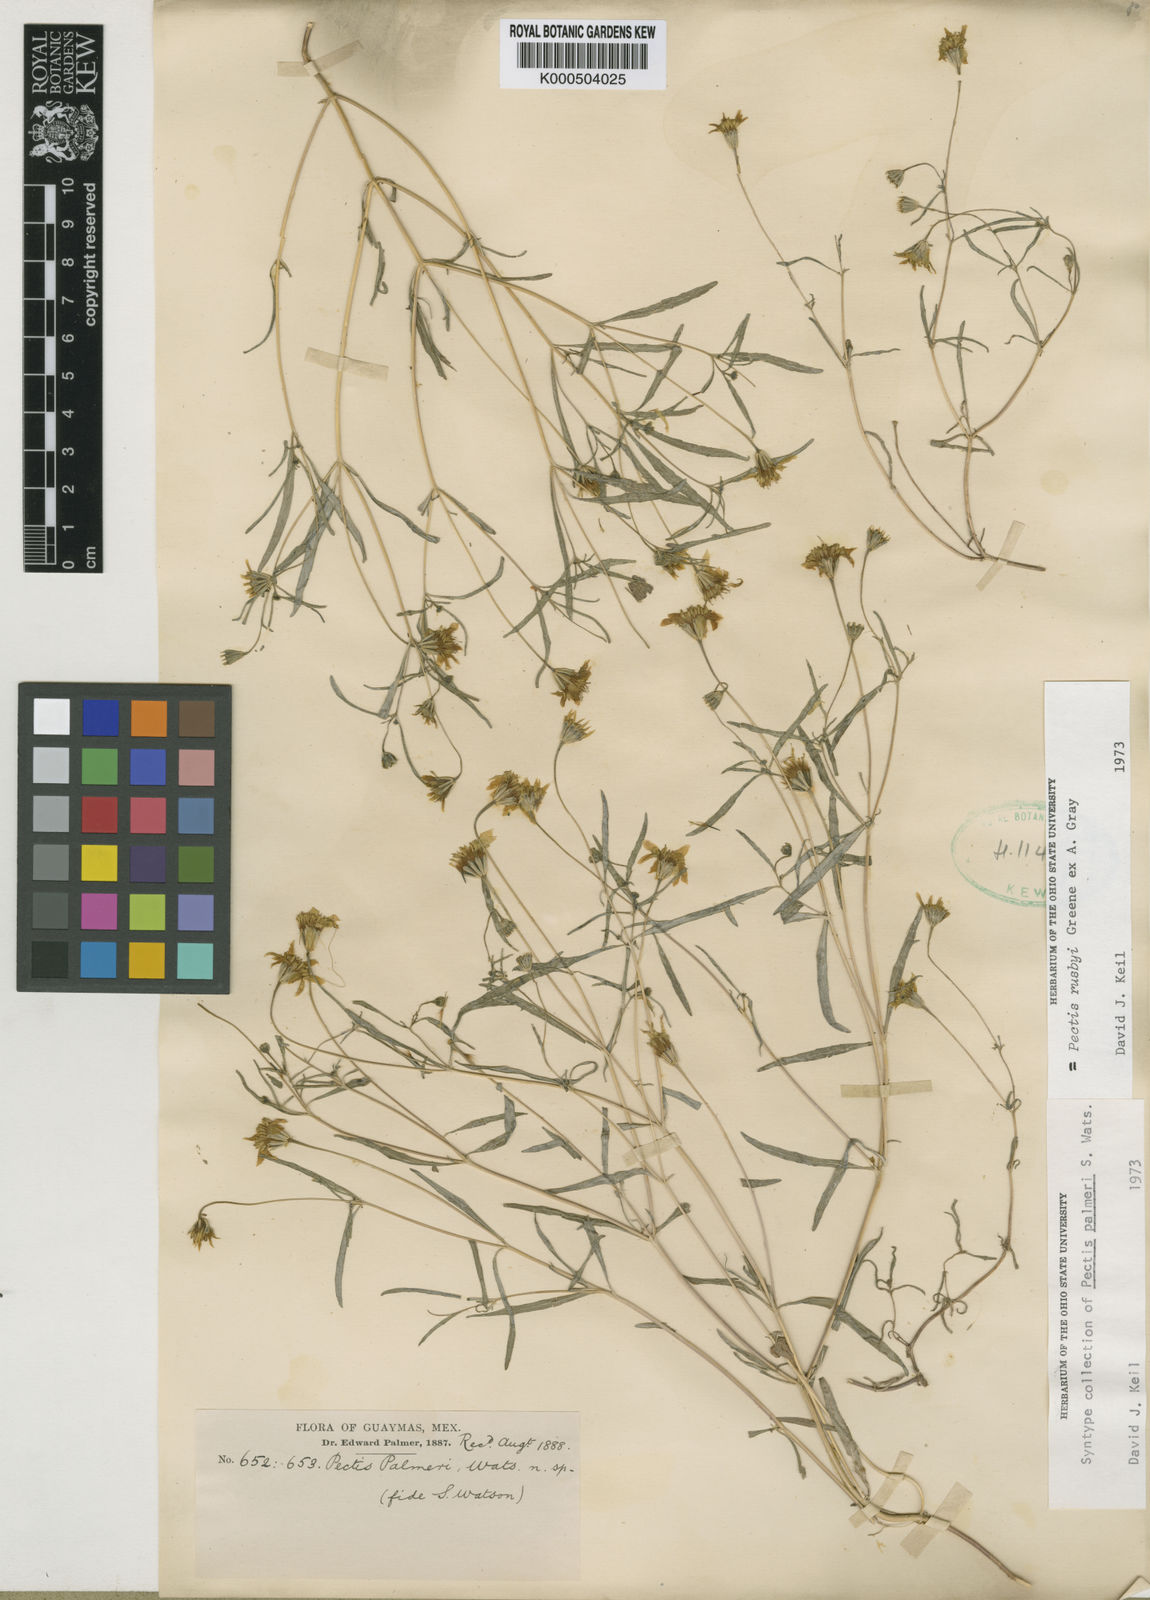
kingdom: Plantae
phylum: Tracheophyta
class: Magnoliopsida
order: Asterales
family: Asteraceae
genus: Pectis
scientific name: Pectis rusbyi
